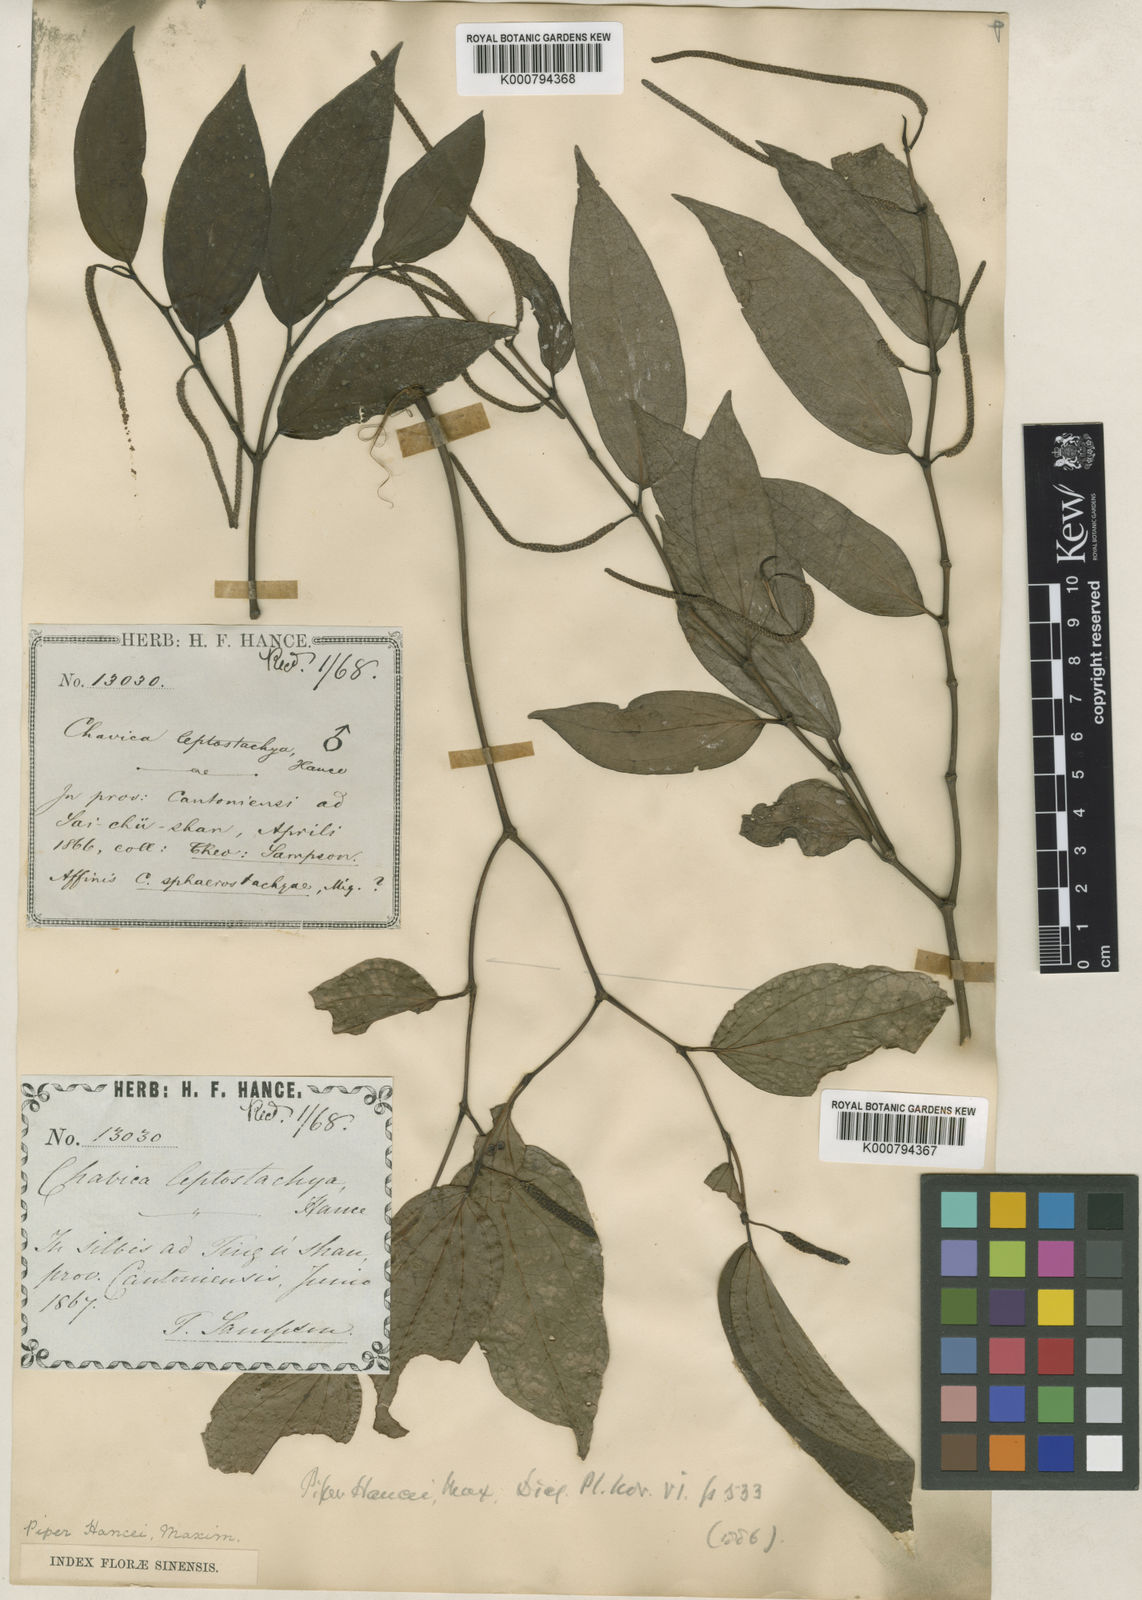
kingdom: Plantae
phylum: Tracheophyta
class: Magnoliopsida
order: Piperales
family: Piperaceae
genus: Piper
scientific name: Piper hancei
